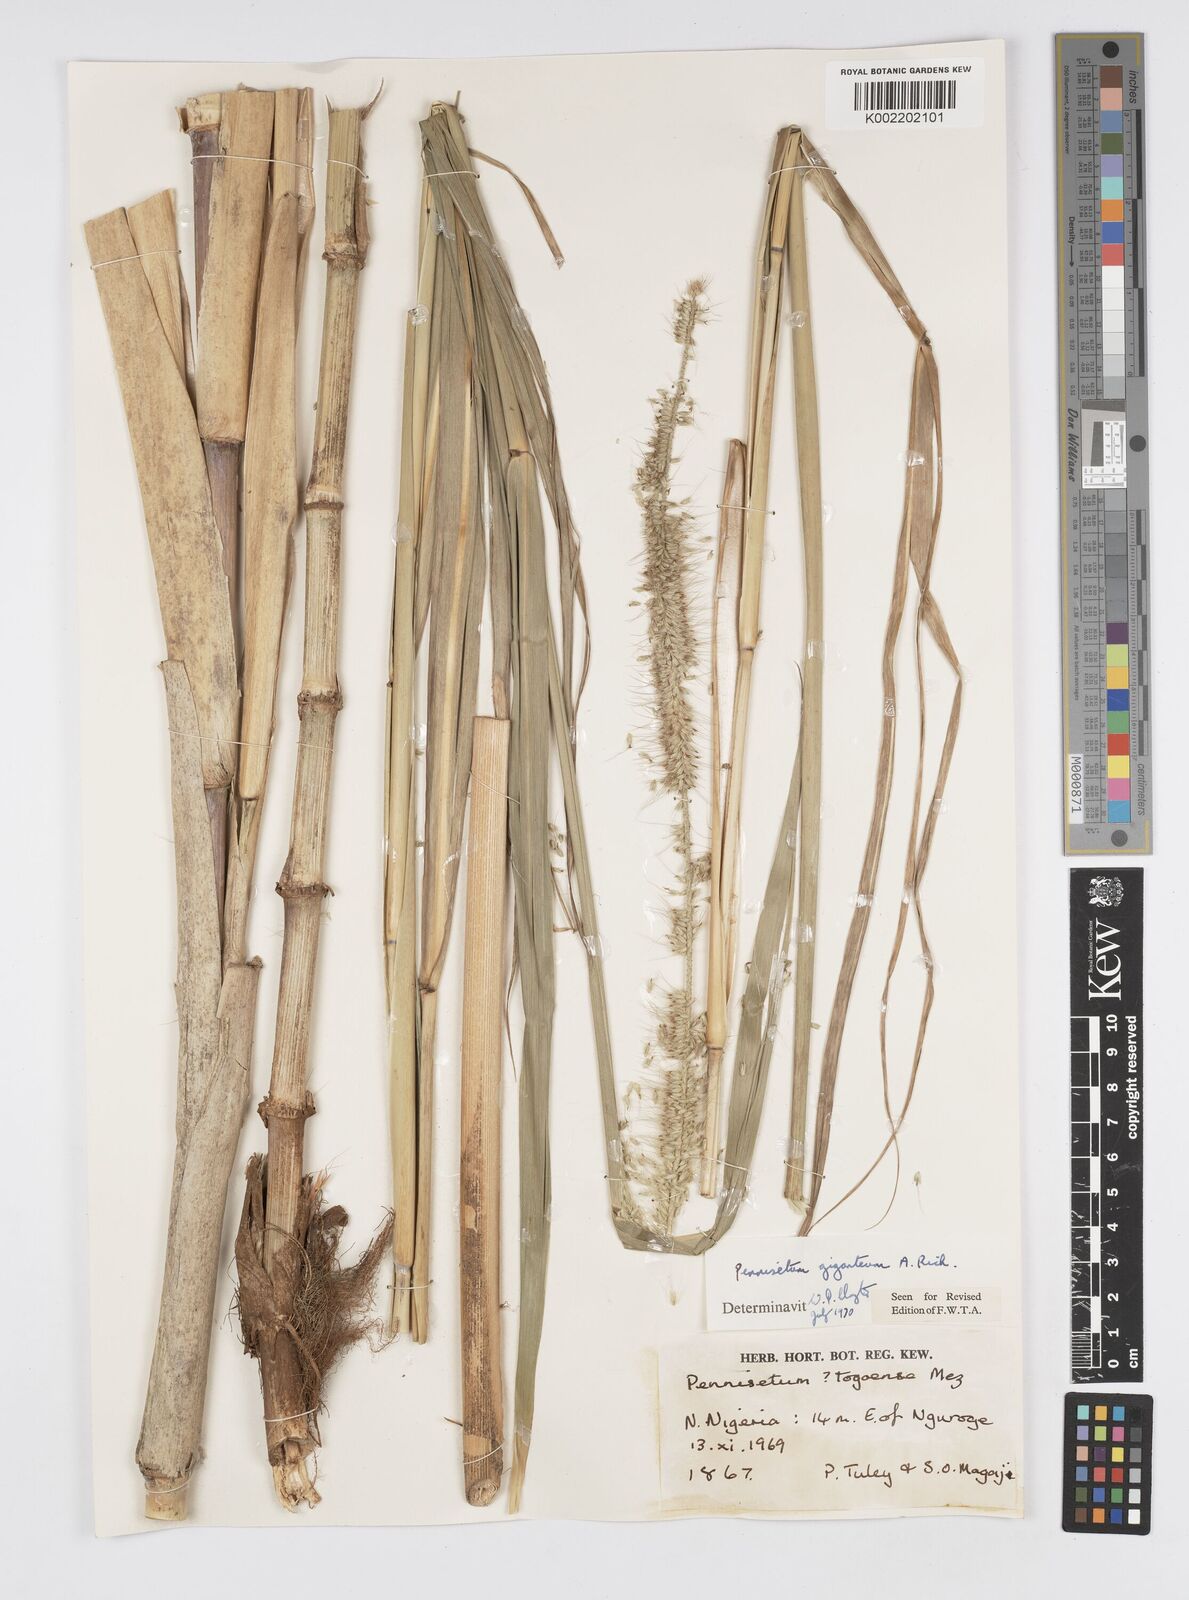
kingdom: Plantae
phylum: Tracheophyta
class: Liliopsida
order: Poales
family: Poaceae
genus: Cenchrus
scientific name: Cenchrus caudatus
